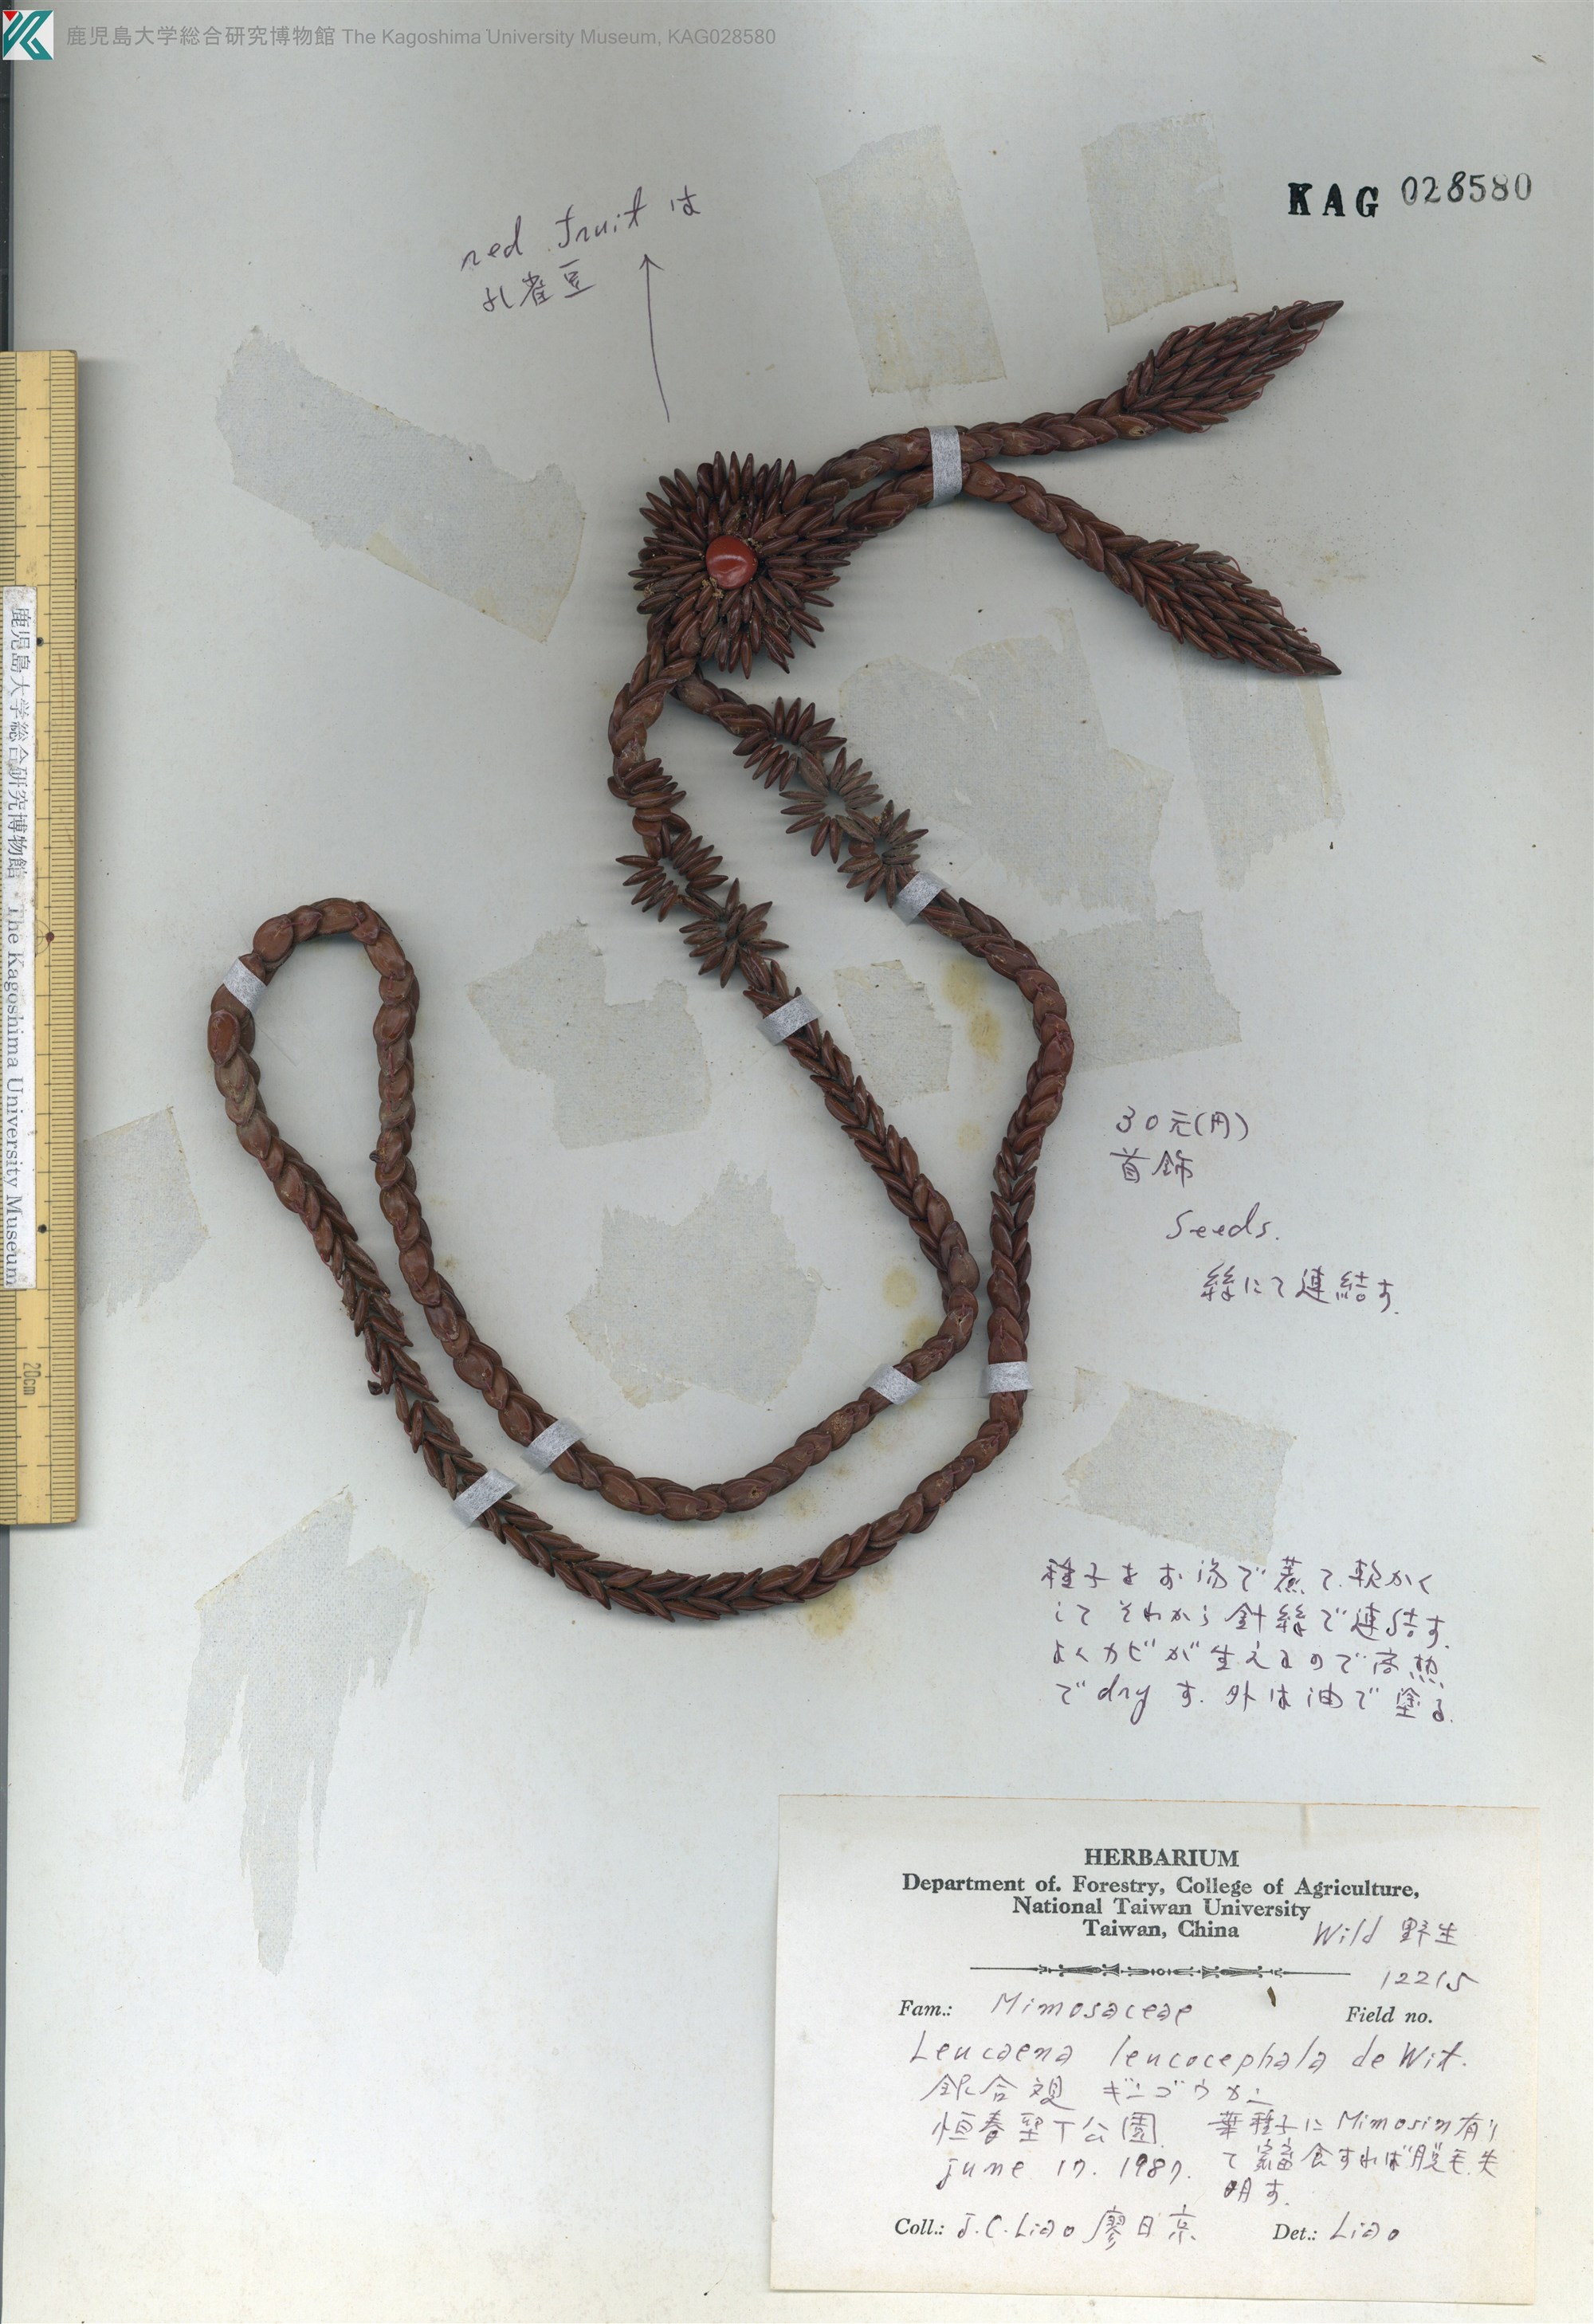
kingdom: Plantae
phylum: Tracheophyta
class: Magnoliopsida
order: Fabales
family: Fabaceae
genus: Leucaena
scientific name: Leucaena leucocephala
